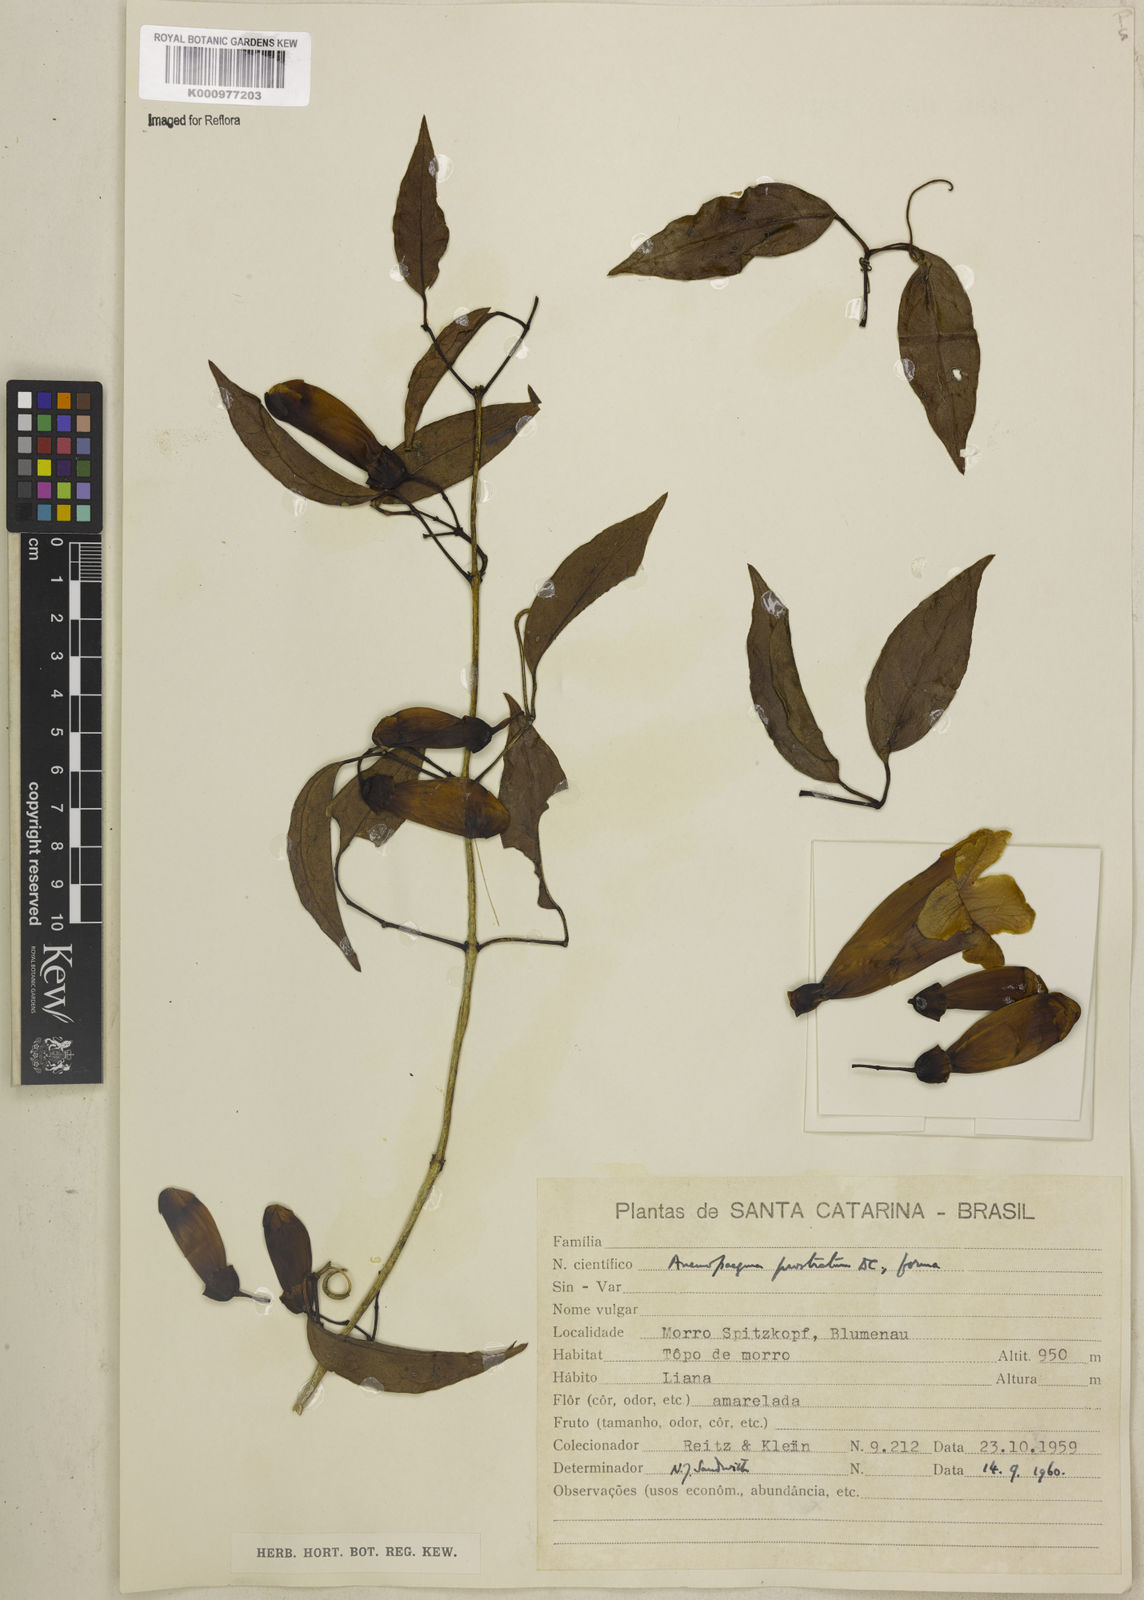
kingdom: Plantae
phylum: Tracheophyta
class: Magnoliopsida
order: Lamiales
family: Bignoniaceae
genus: Anemopaegma
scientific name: Anemopaegma nebulosum
